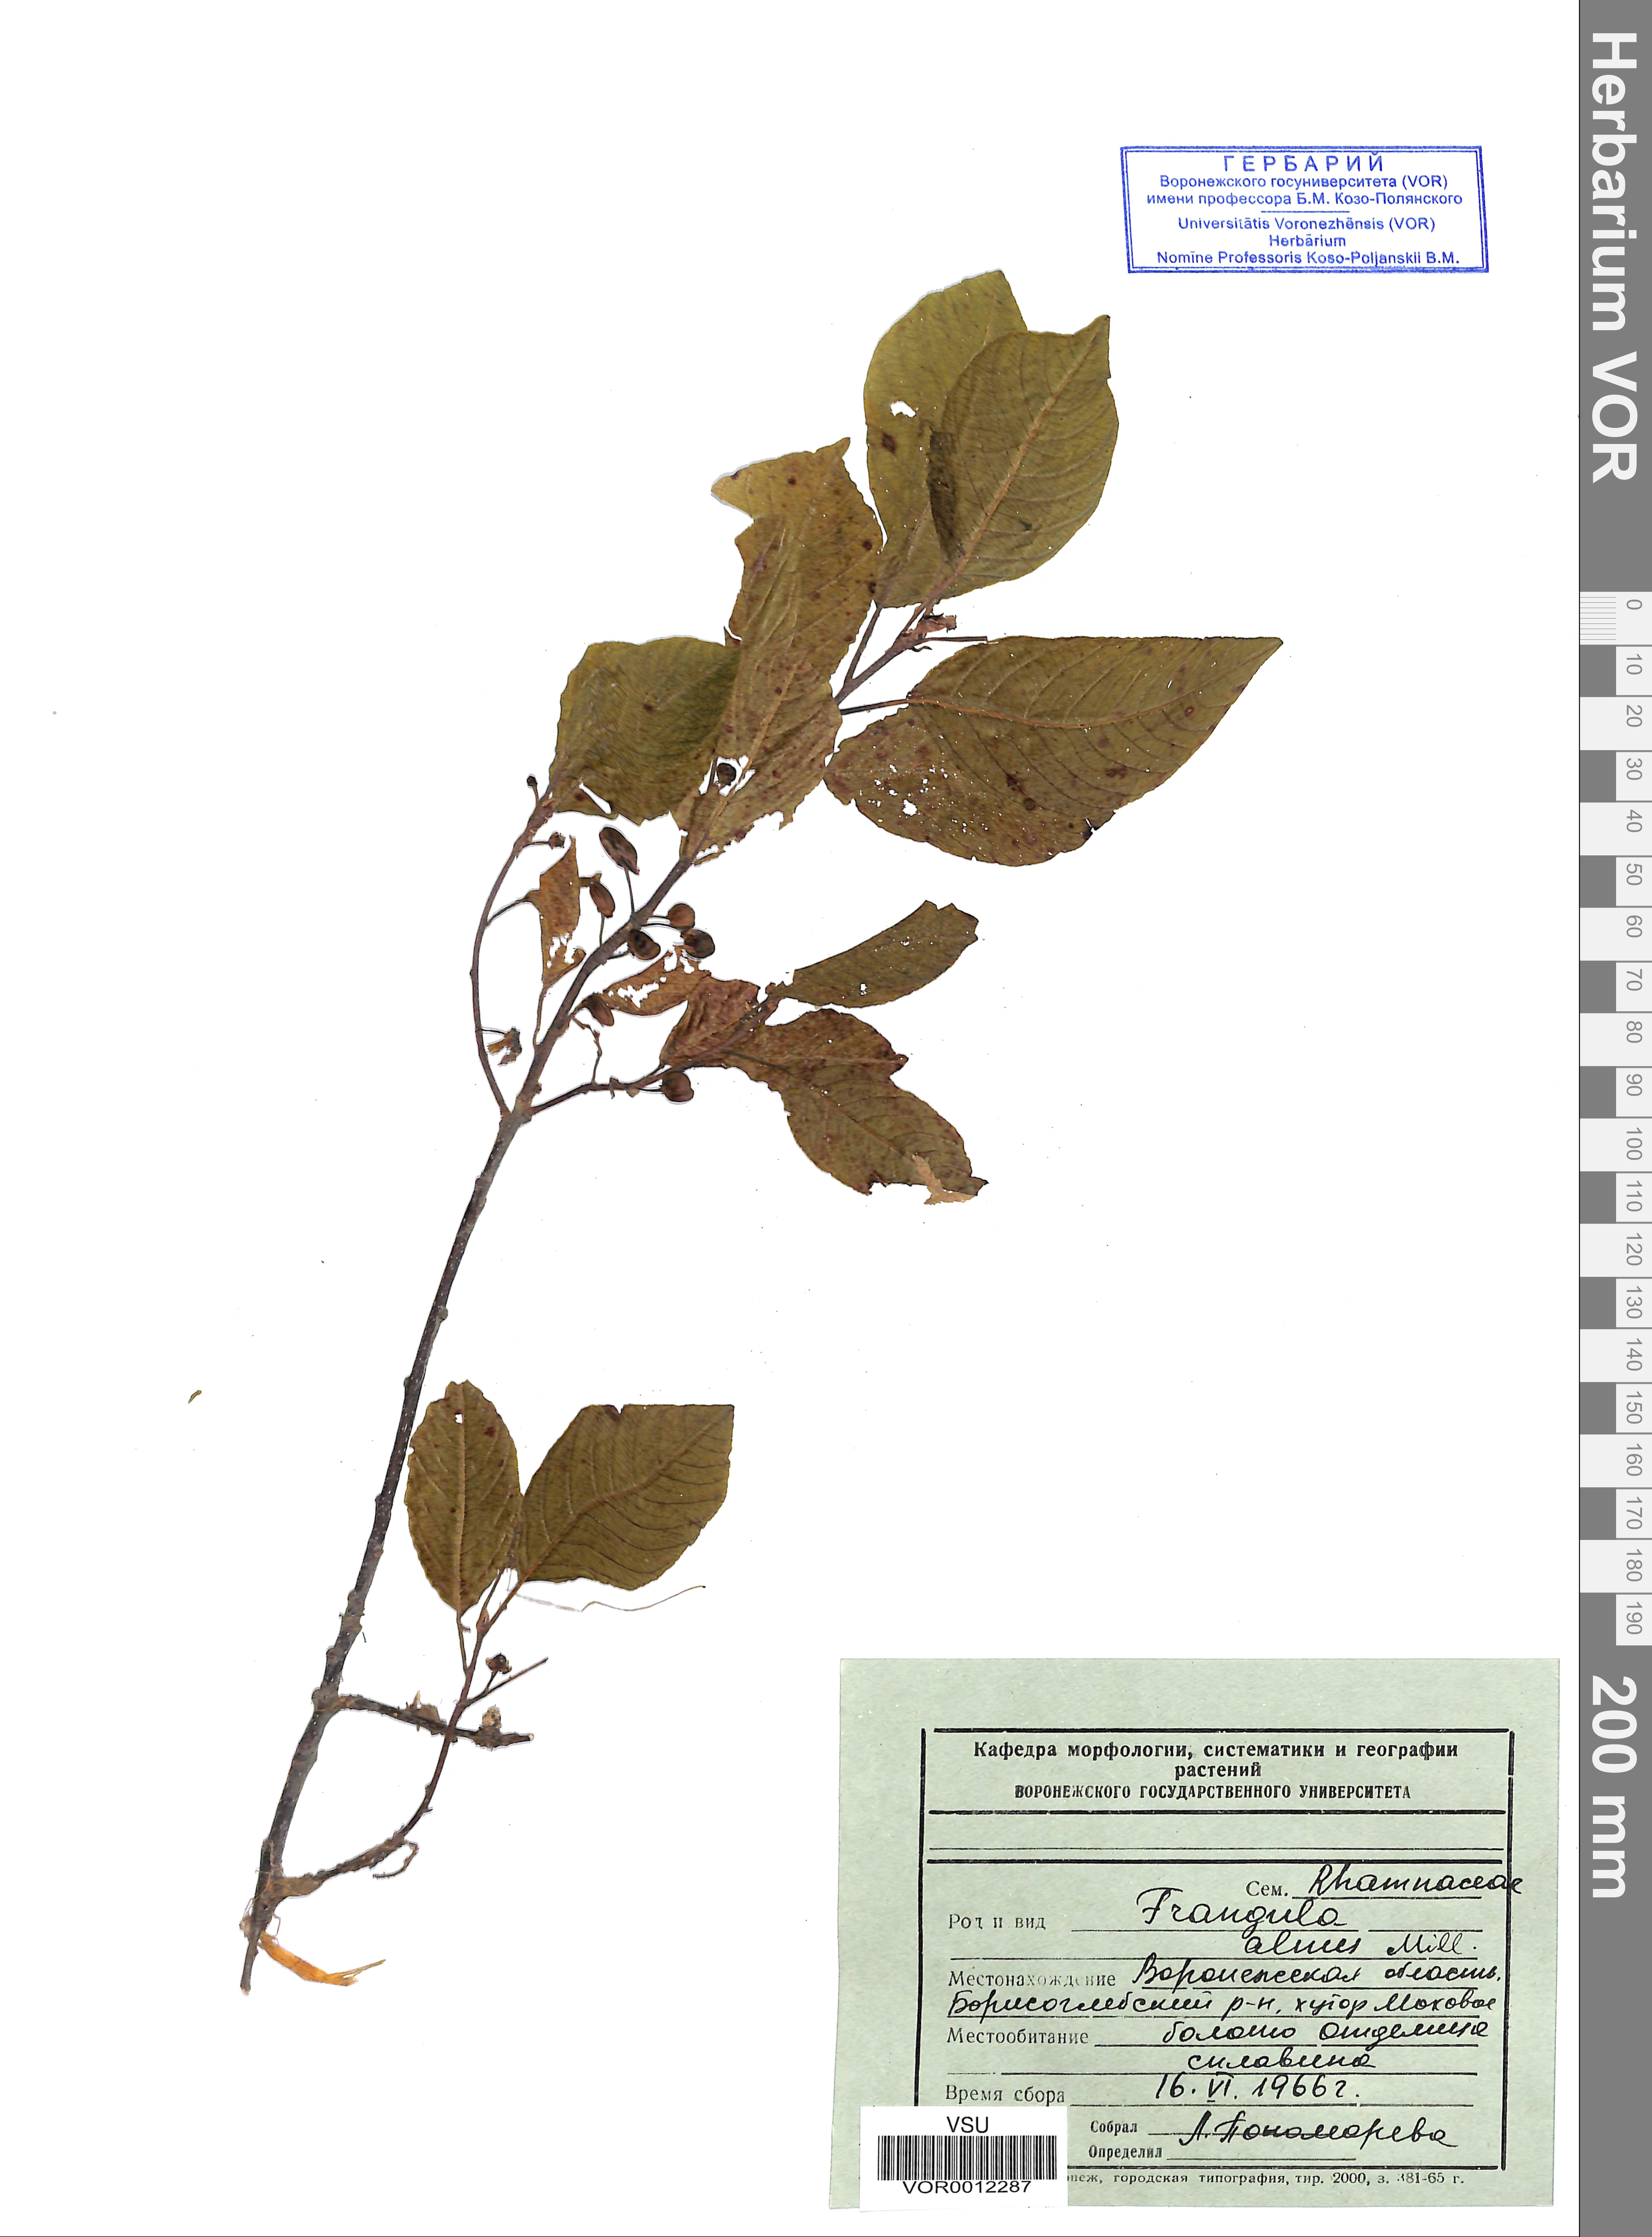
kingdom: Plantae
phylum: Tracheophyta
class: Magnoliopsida
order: Rosales
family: Rhamnaceae
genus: Frangula
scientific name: Frangula alnus
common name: Alder buckthorn
